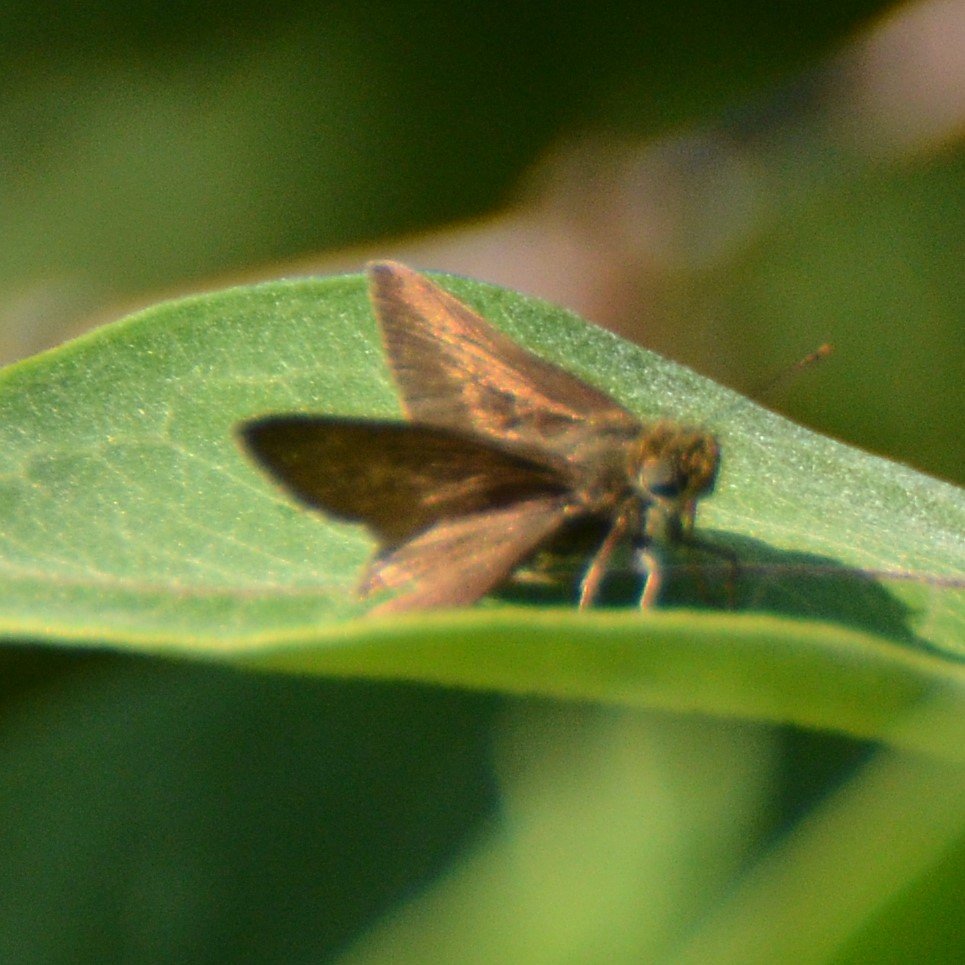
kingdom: Animalia
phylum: Arthropoda
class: Insecta
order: Lepidoptera
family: Hesperiidae
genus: Euphyes
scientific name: Euphyes vestris
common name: Dun Skipper
